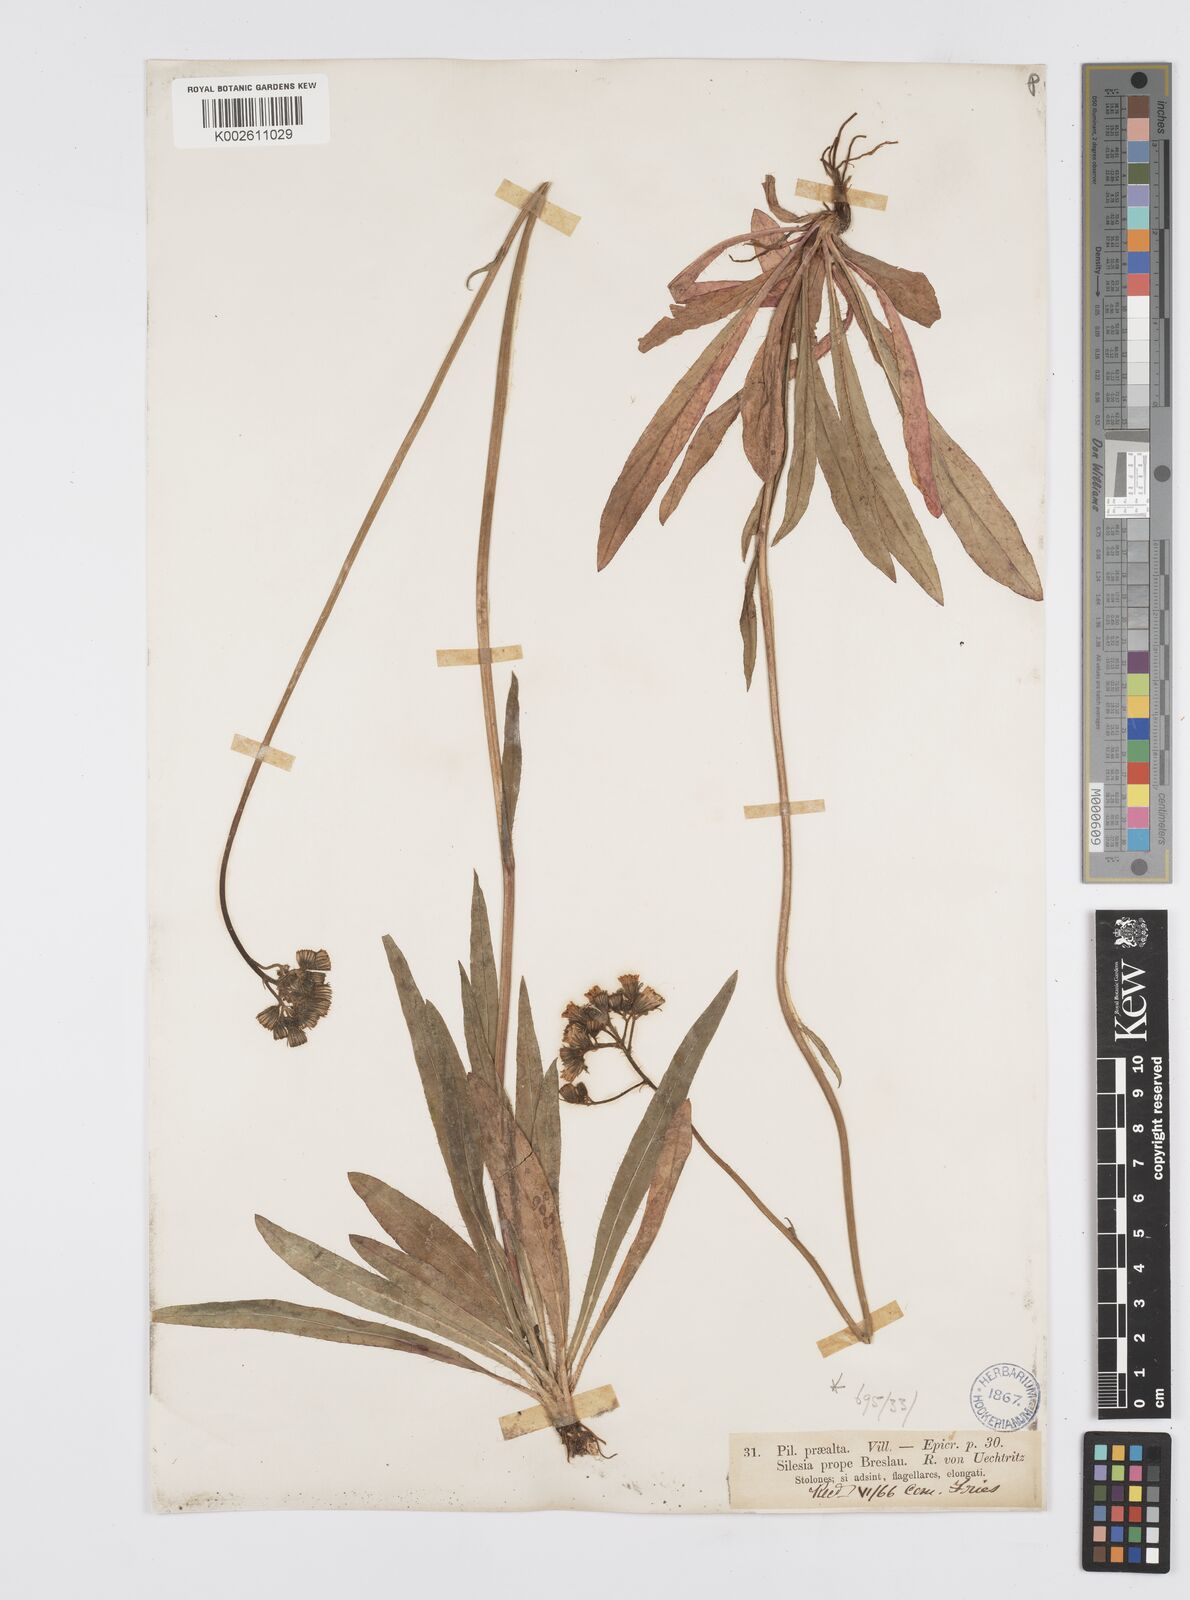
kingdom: Plantae
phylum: Tracheophyta
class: Magnoliopsida
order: Asterales
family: Asteraceae
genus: Pilosella
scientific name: Pilosella piloselloides
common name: Glaucous king-devil
